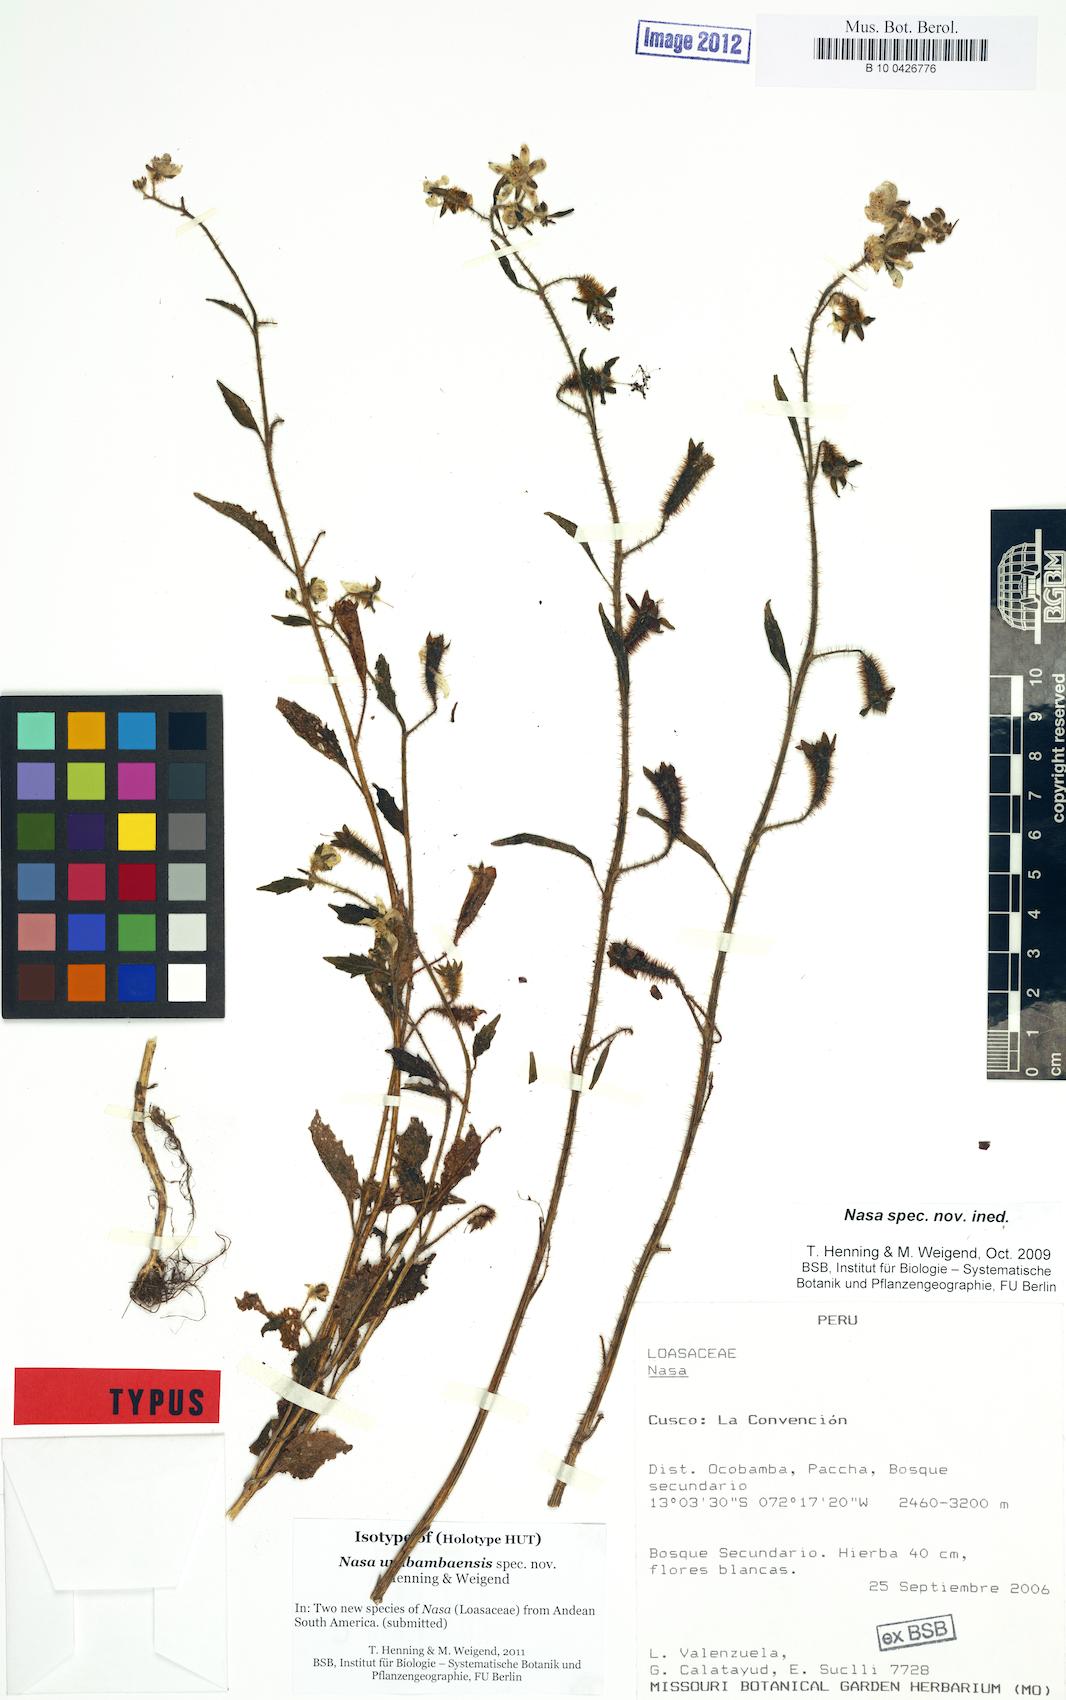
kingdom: Plantae
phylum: Tracheophyta
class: Magnoliopsida
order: Cornales
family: Loasaceae
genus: Nasa
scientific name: Nasa urubambensis
